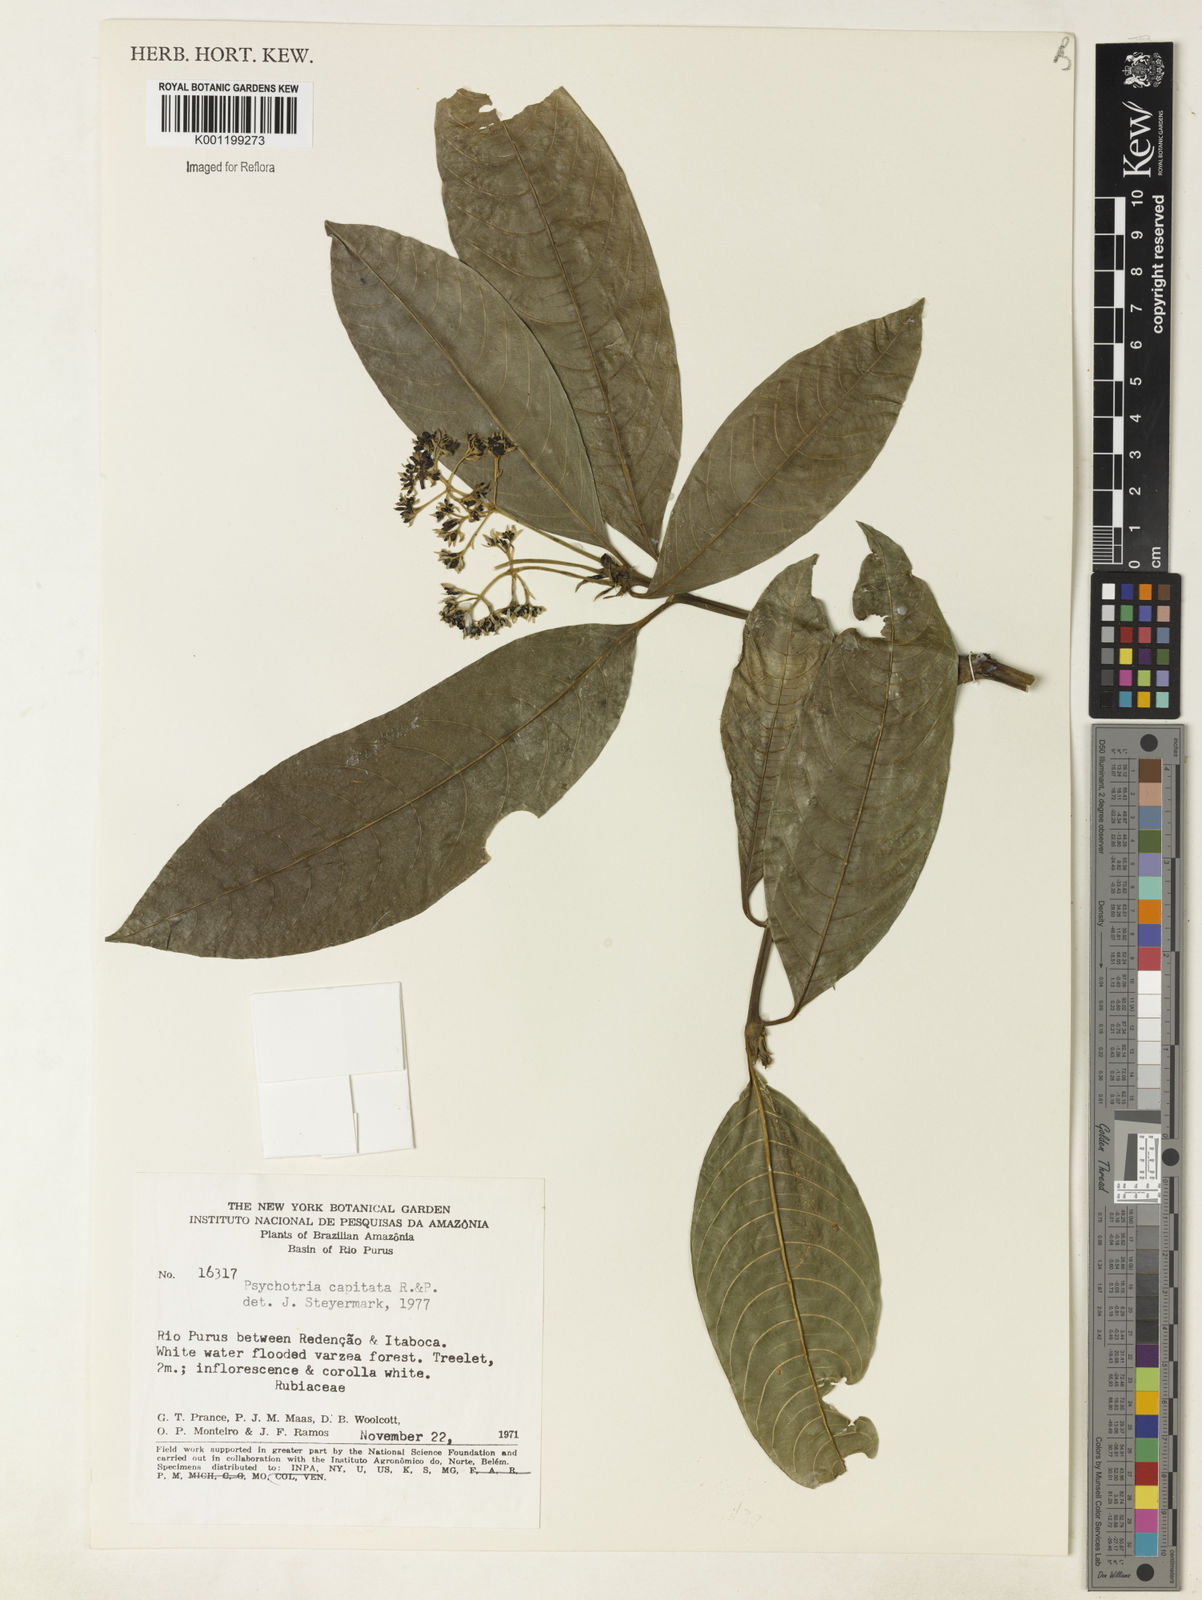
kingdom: Plantae
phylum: Tracheophyta
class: Magnoliopsida
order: Gentianales
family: Rubiaceae
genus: Palicourea
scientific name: Palicourea violacea
